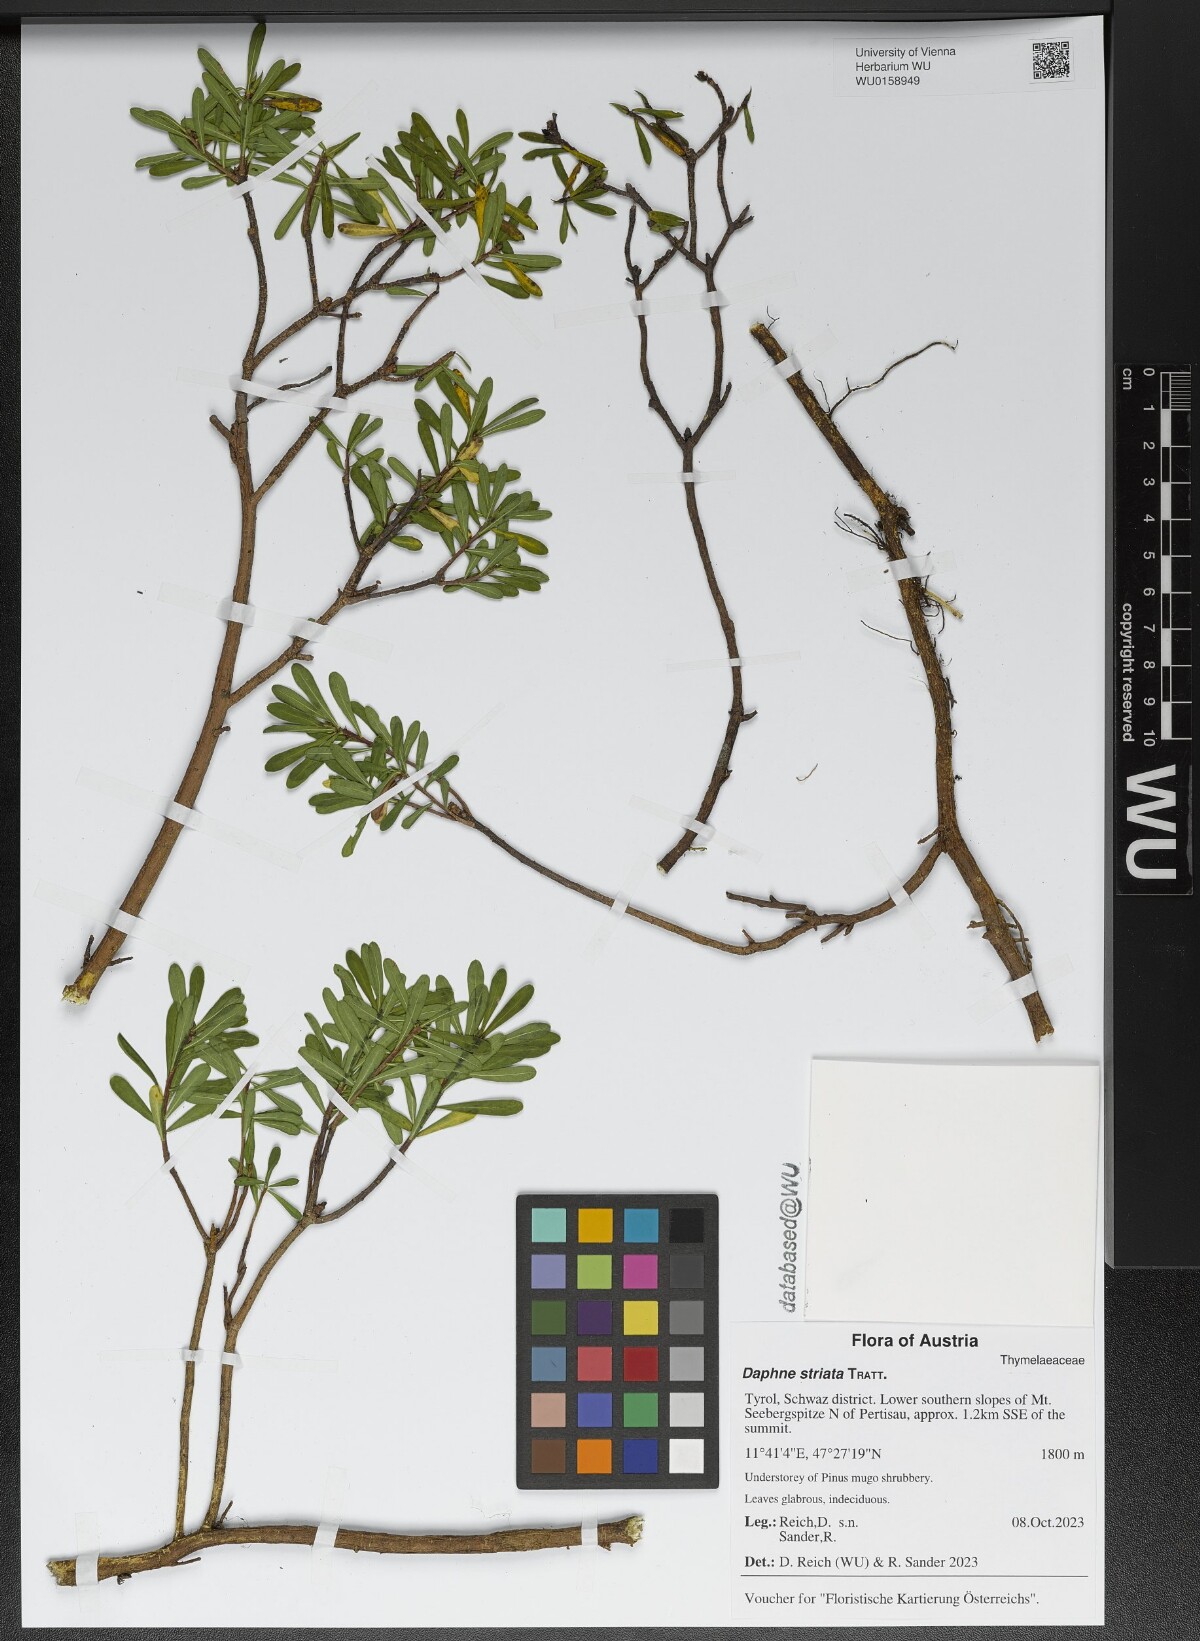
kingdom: Plantae
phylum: Tracheophyta
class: Magnoliopsida
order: Malvales
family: Thymelaeaceae
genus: Daphne
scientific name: Daphne striata
